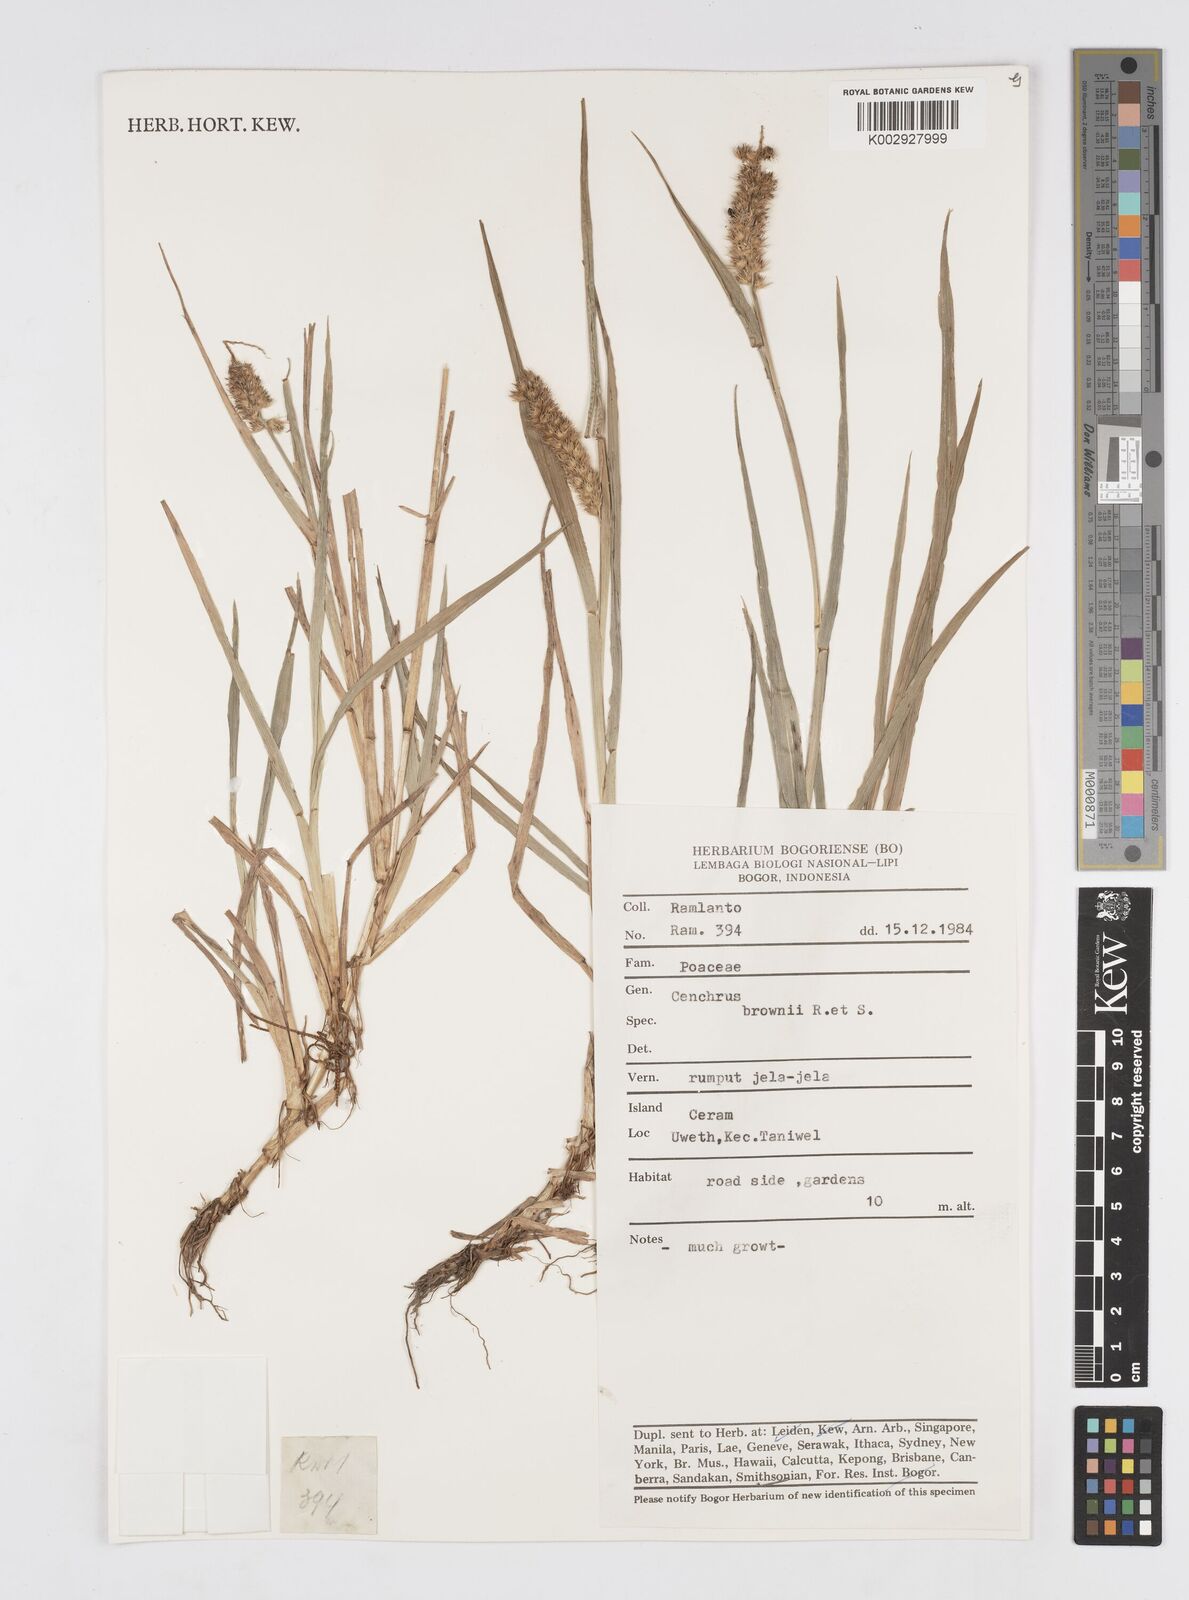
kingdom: Plantae
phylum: Tracheophyta
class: Liliopsida
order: Poales
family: Poaceae
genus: Cenchrus
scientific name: Cenchrus brownii
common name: Slim-bristle sandbur
